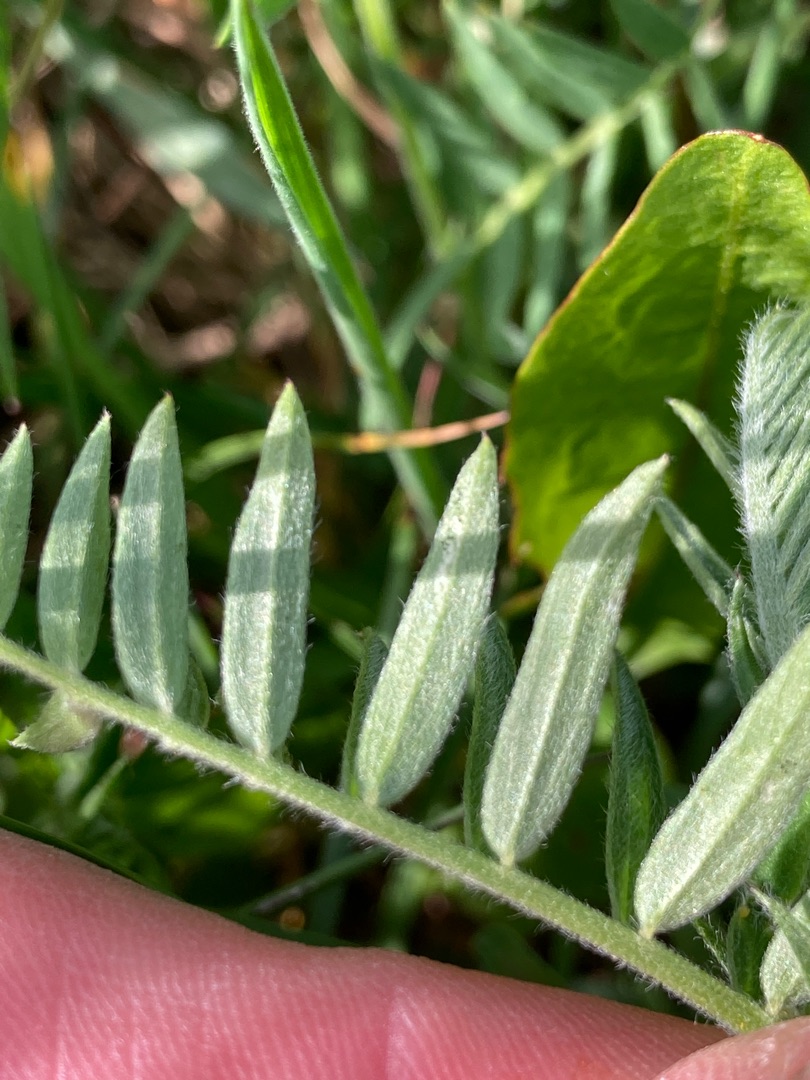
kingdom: Plantae
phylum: Tracheophyta
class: Magnoliopsida
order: Fabales
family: Fabaceae
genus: Vicia
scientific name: Vicia cracca
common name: Muse-vikke
